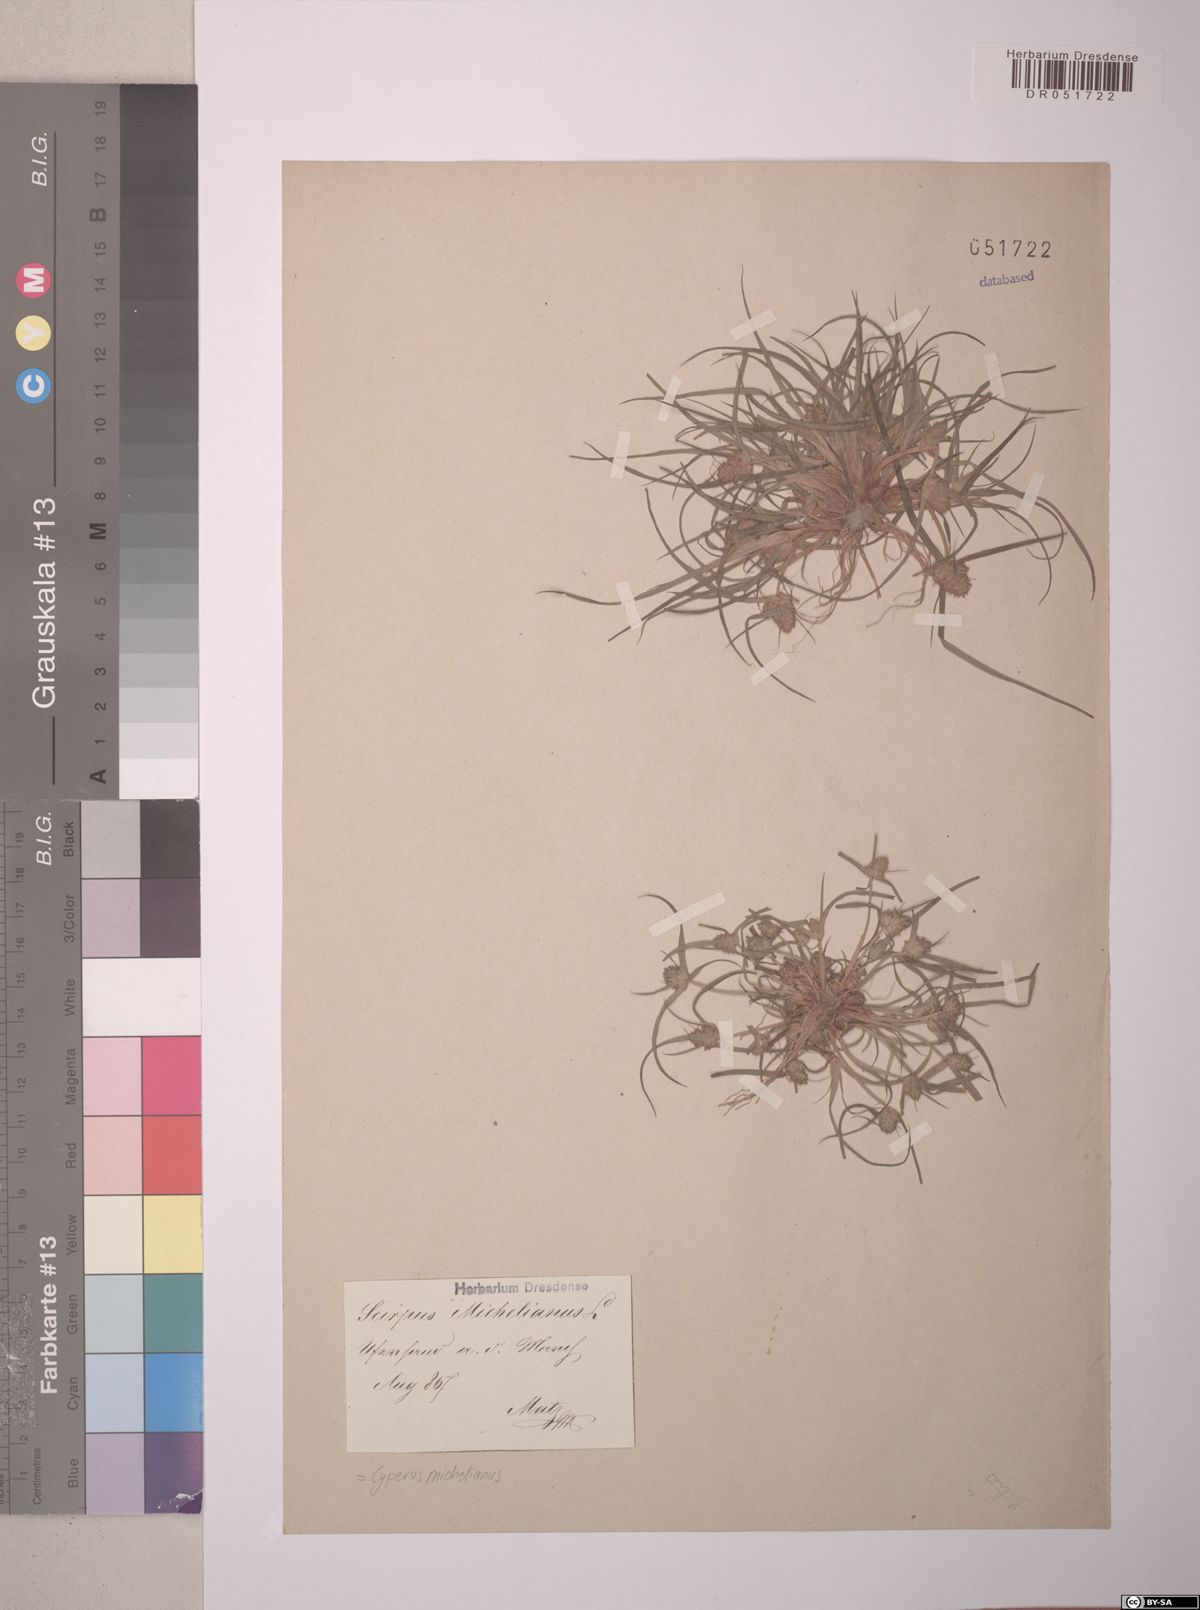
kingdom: Plantae
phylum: Tracheophyta
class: Liliopsida
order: Poales
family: Cyperaceae
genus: Cyperus
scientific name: Cyperus michelianus
